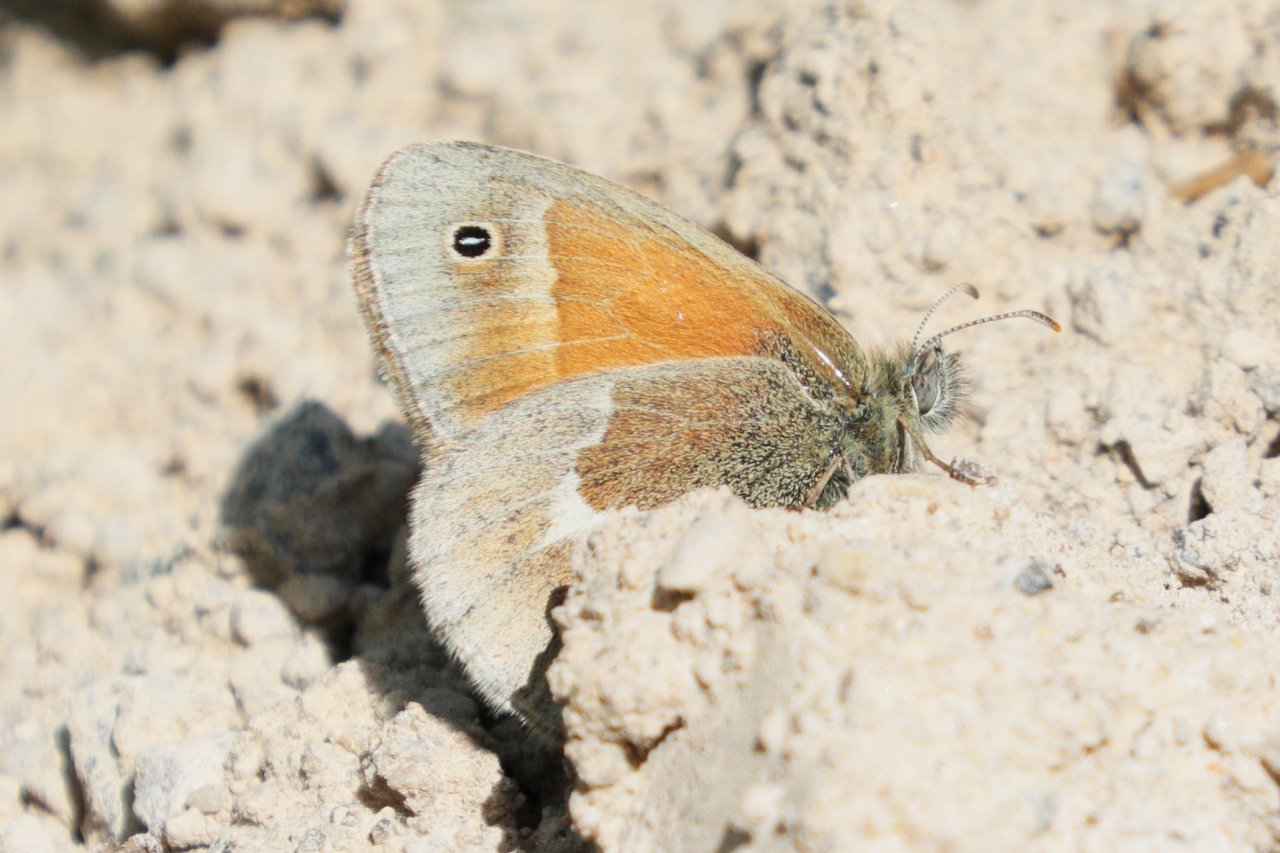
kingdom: Animalia
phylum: Arthropoda
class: Insecta
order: Lepidoptera
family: Nymphalidae
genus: Coenonympha
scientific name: Coenonympha tullia
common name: Large Heath
